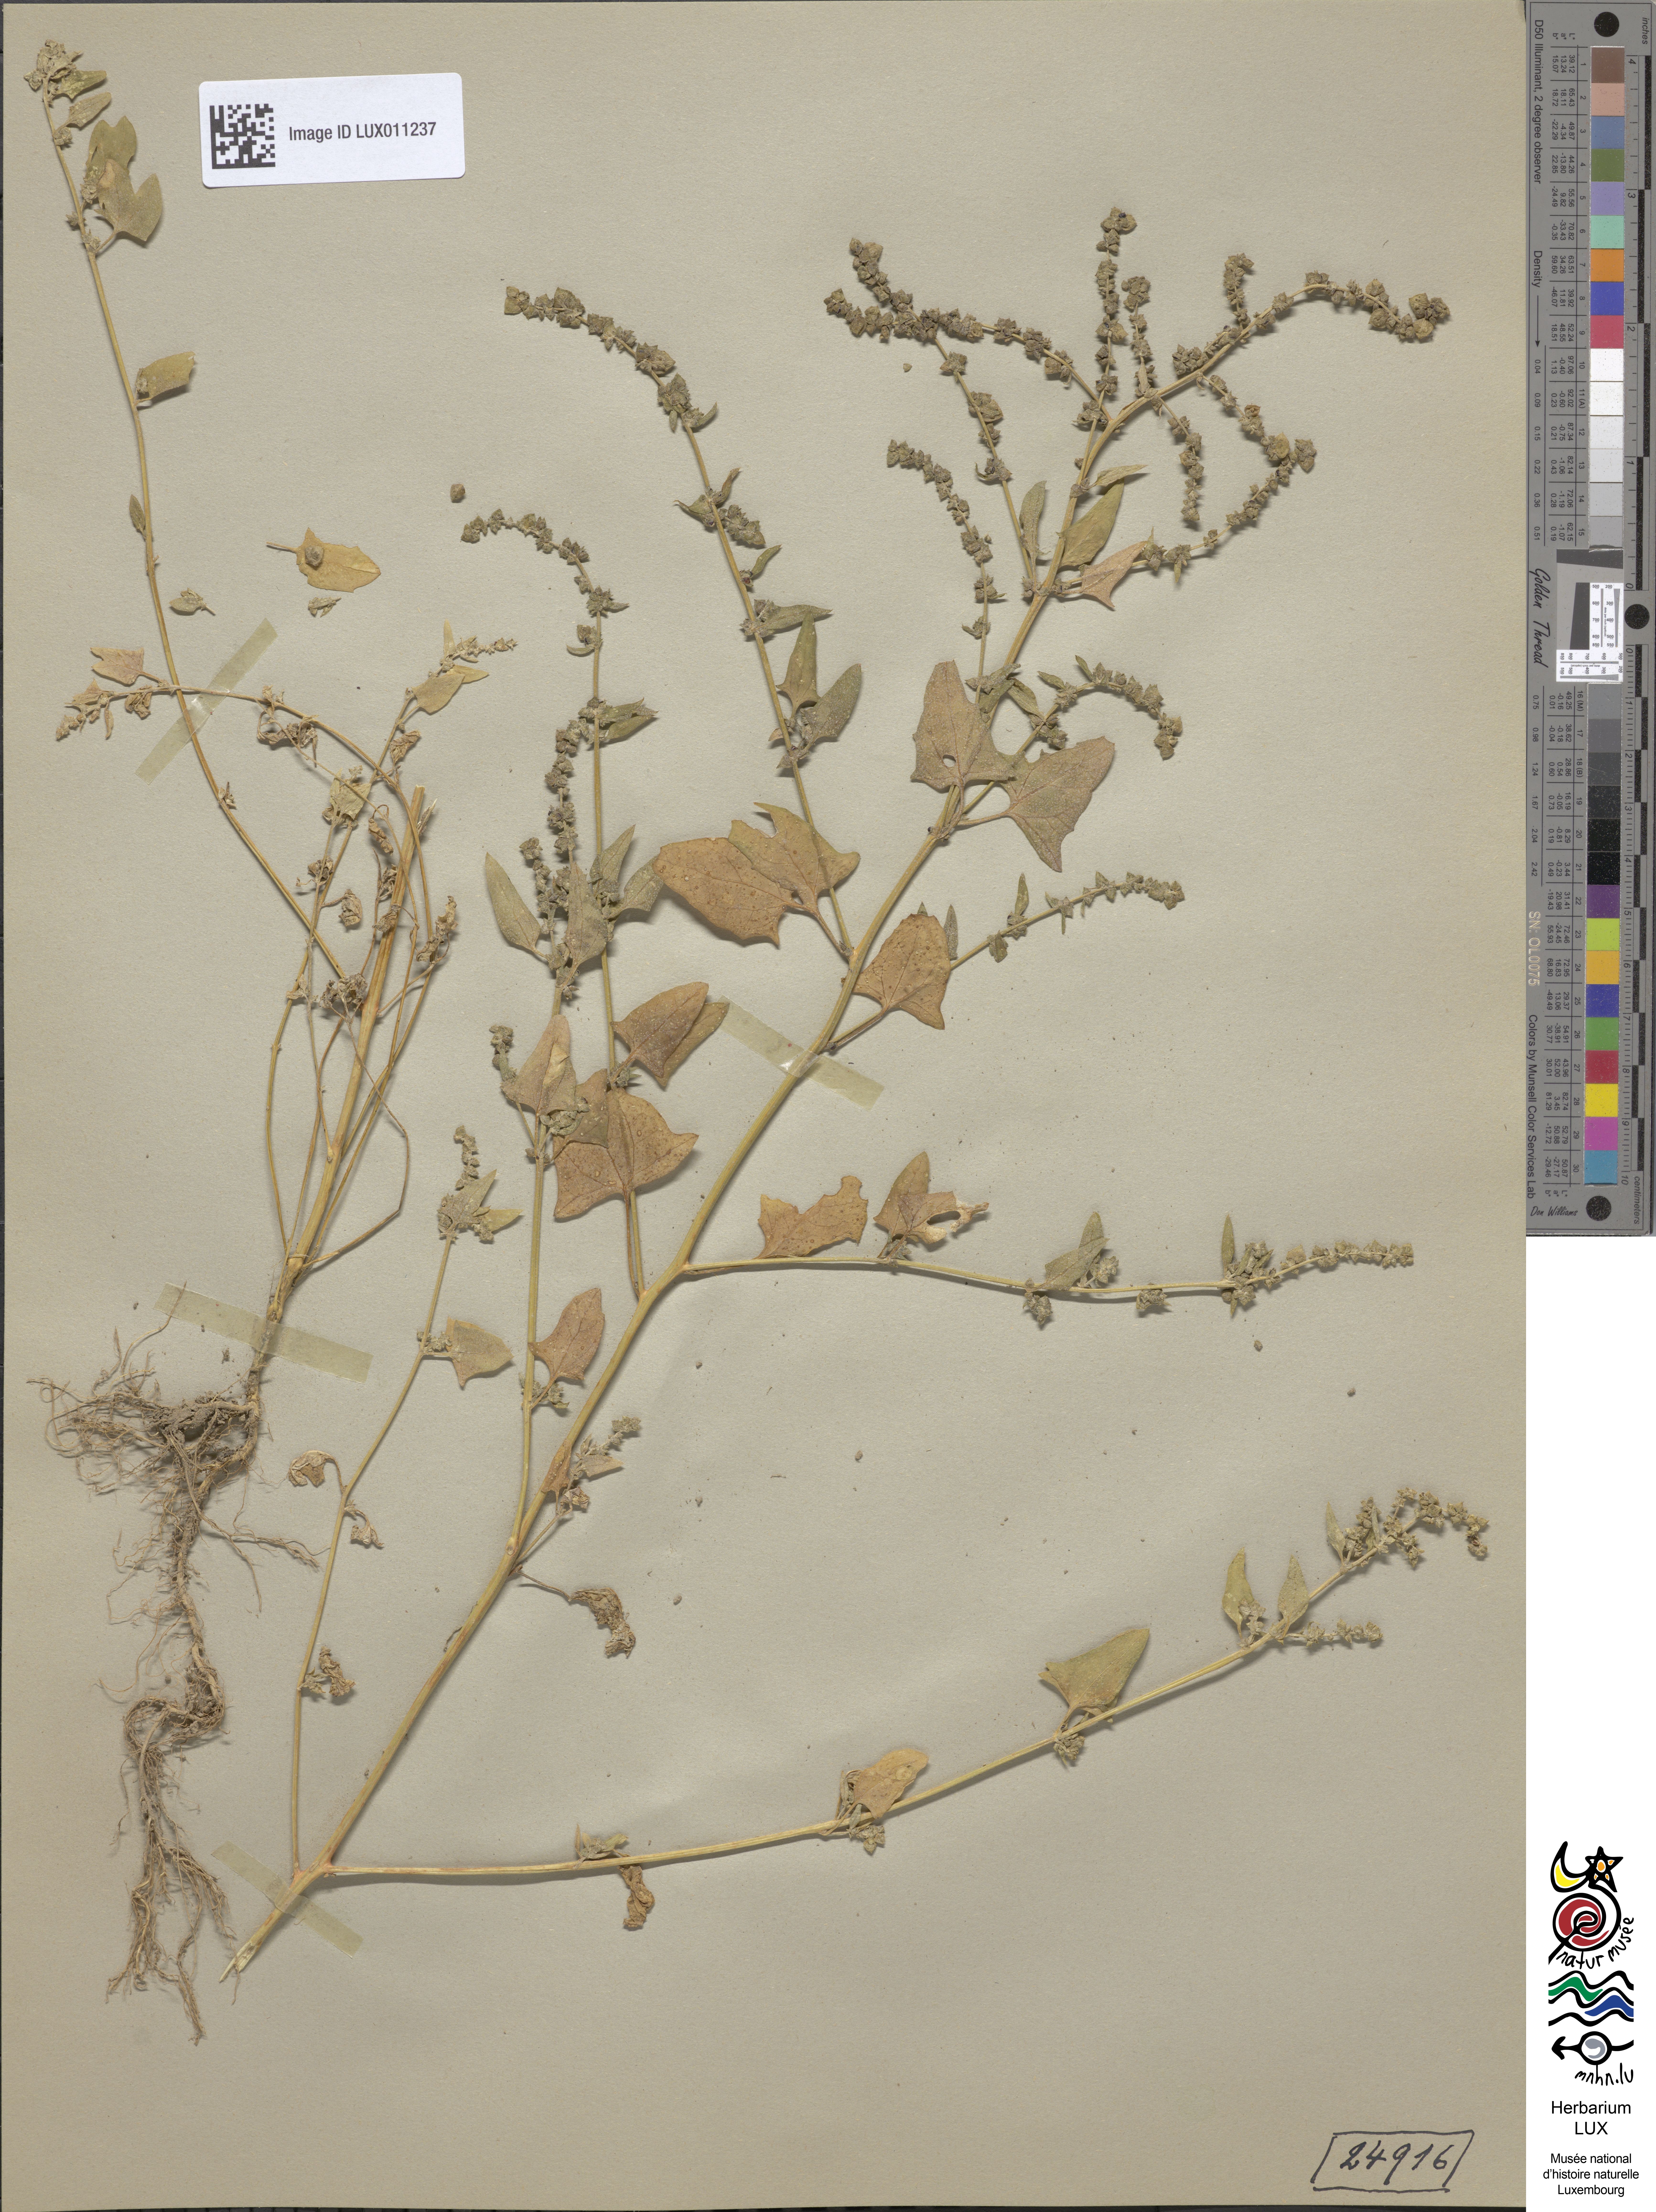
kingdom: Plantae
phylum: Tracheophyta
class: Magnoliopsida
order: Caryophyllales
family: Amaranthaceae
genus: Atriplex
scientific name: Atriplex calotheca
